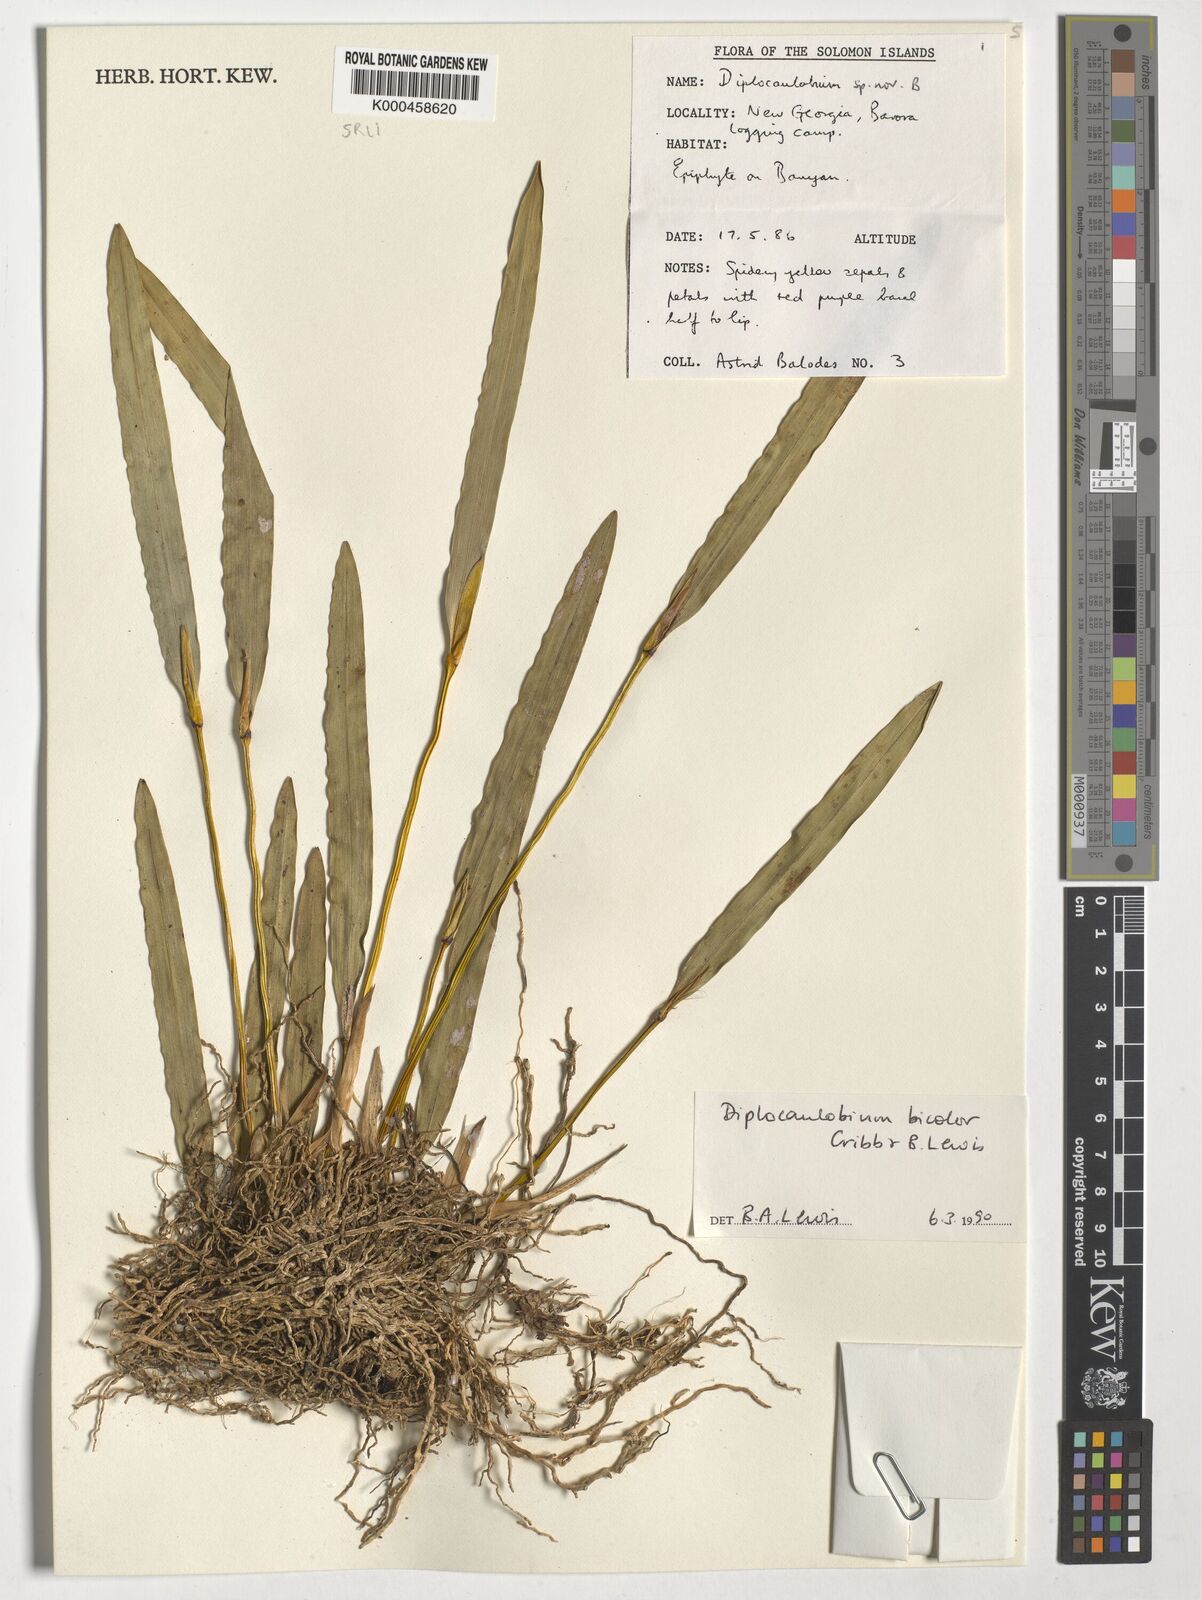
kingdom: Plantae
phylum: Tracheophyta
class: Liliopsida
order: Asparagales
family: Orchidaceae
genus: Dendrobium
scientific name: Dendrobium lewisiae
